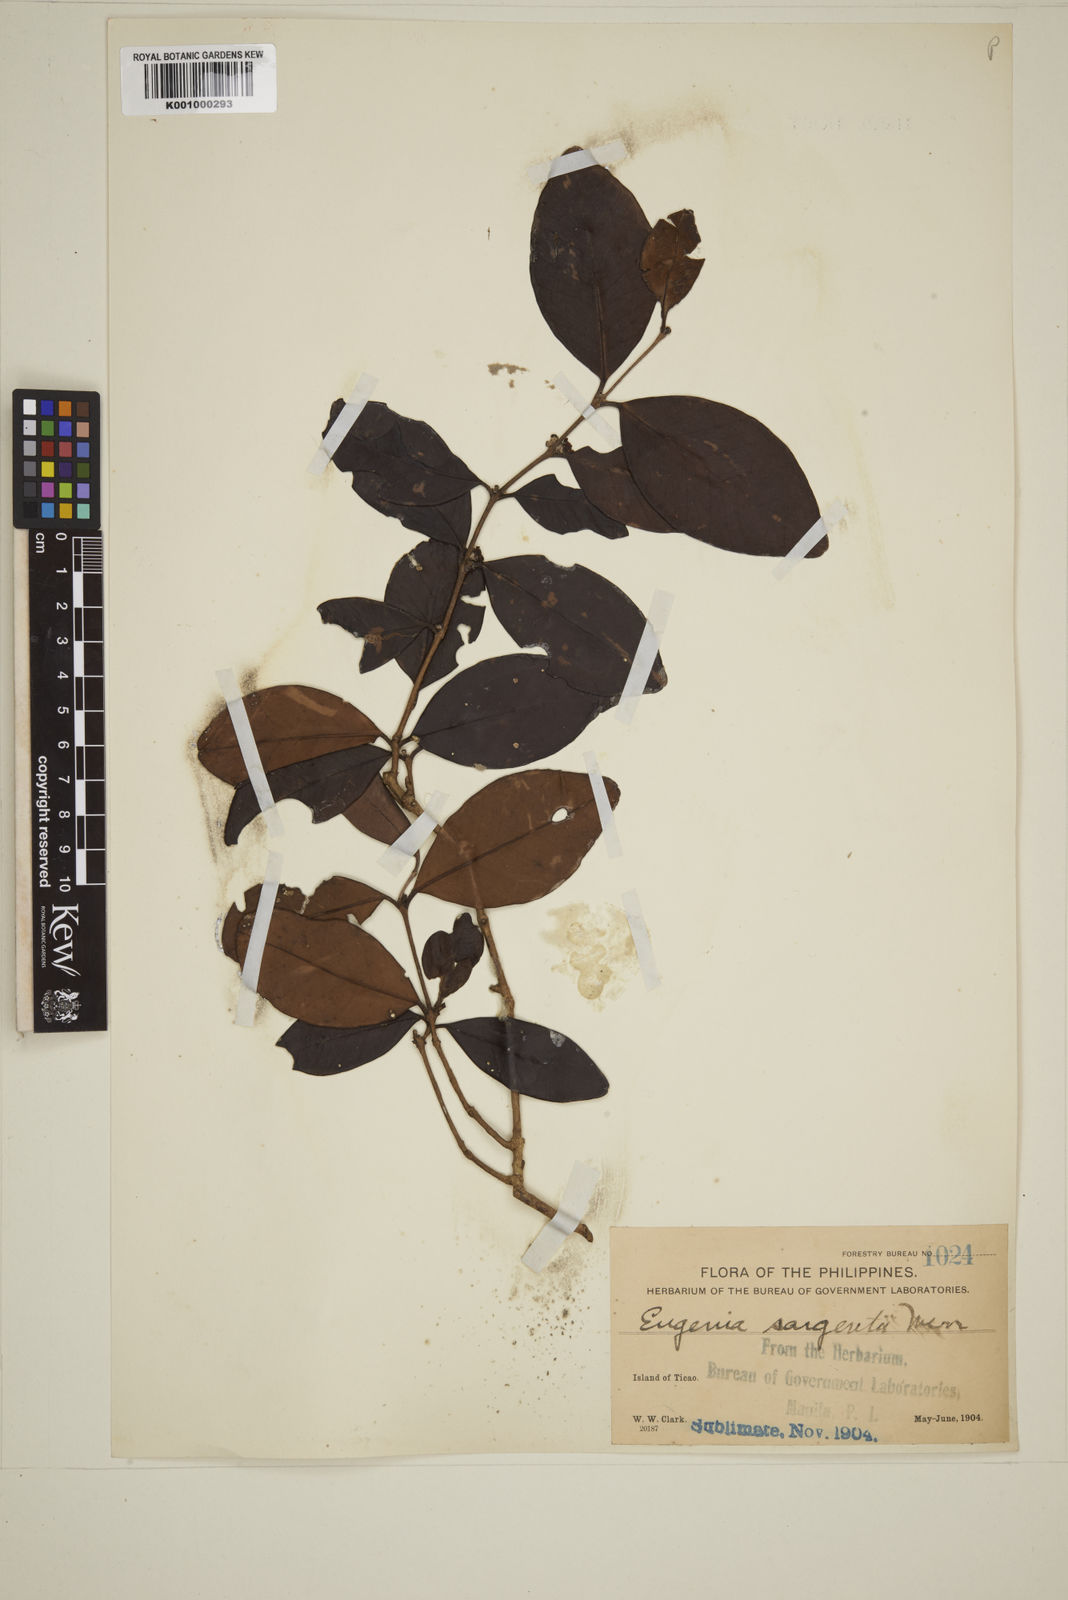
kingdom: Plantae
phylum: Tracheophyta
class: Magnoliopsida
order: Myrtales
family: Myrtaceae
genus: Eugenia
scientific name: Eugenia sargentii
